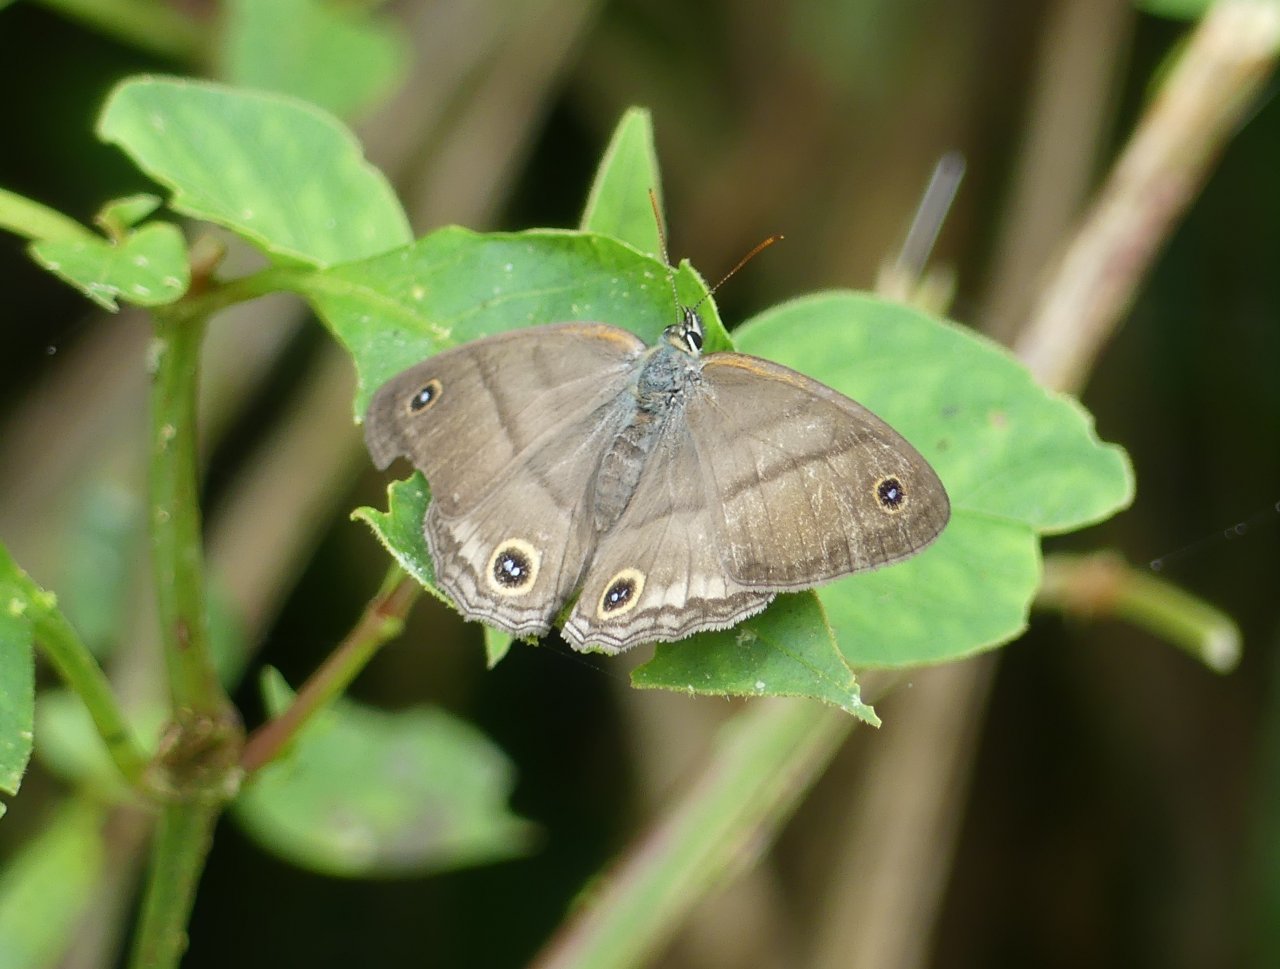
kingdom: Animalia
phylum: Arthropoda
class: Insecta
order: Lepidoptera
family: Nymphalidae
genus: Euptychia
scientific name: Euptychia
